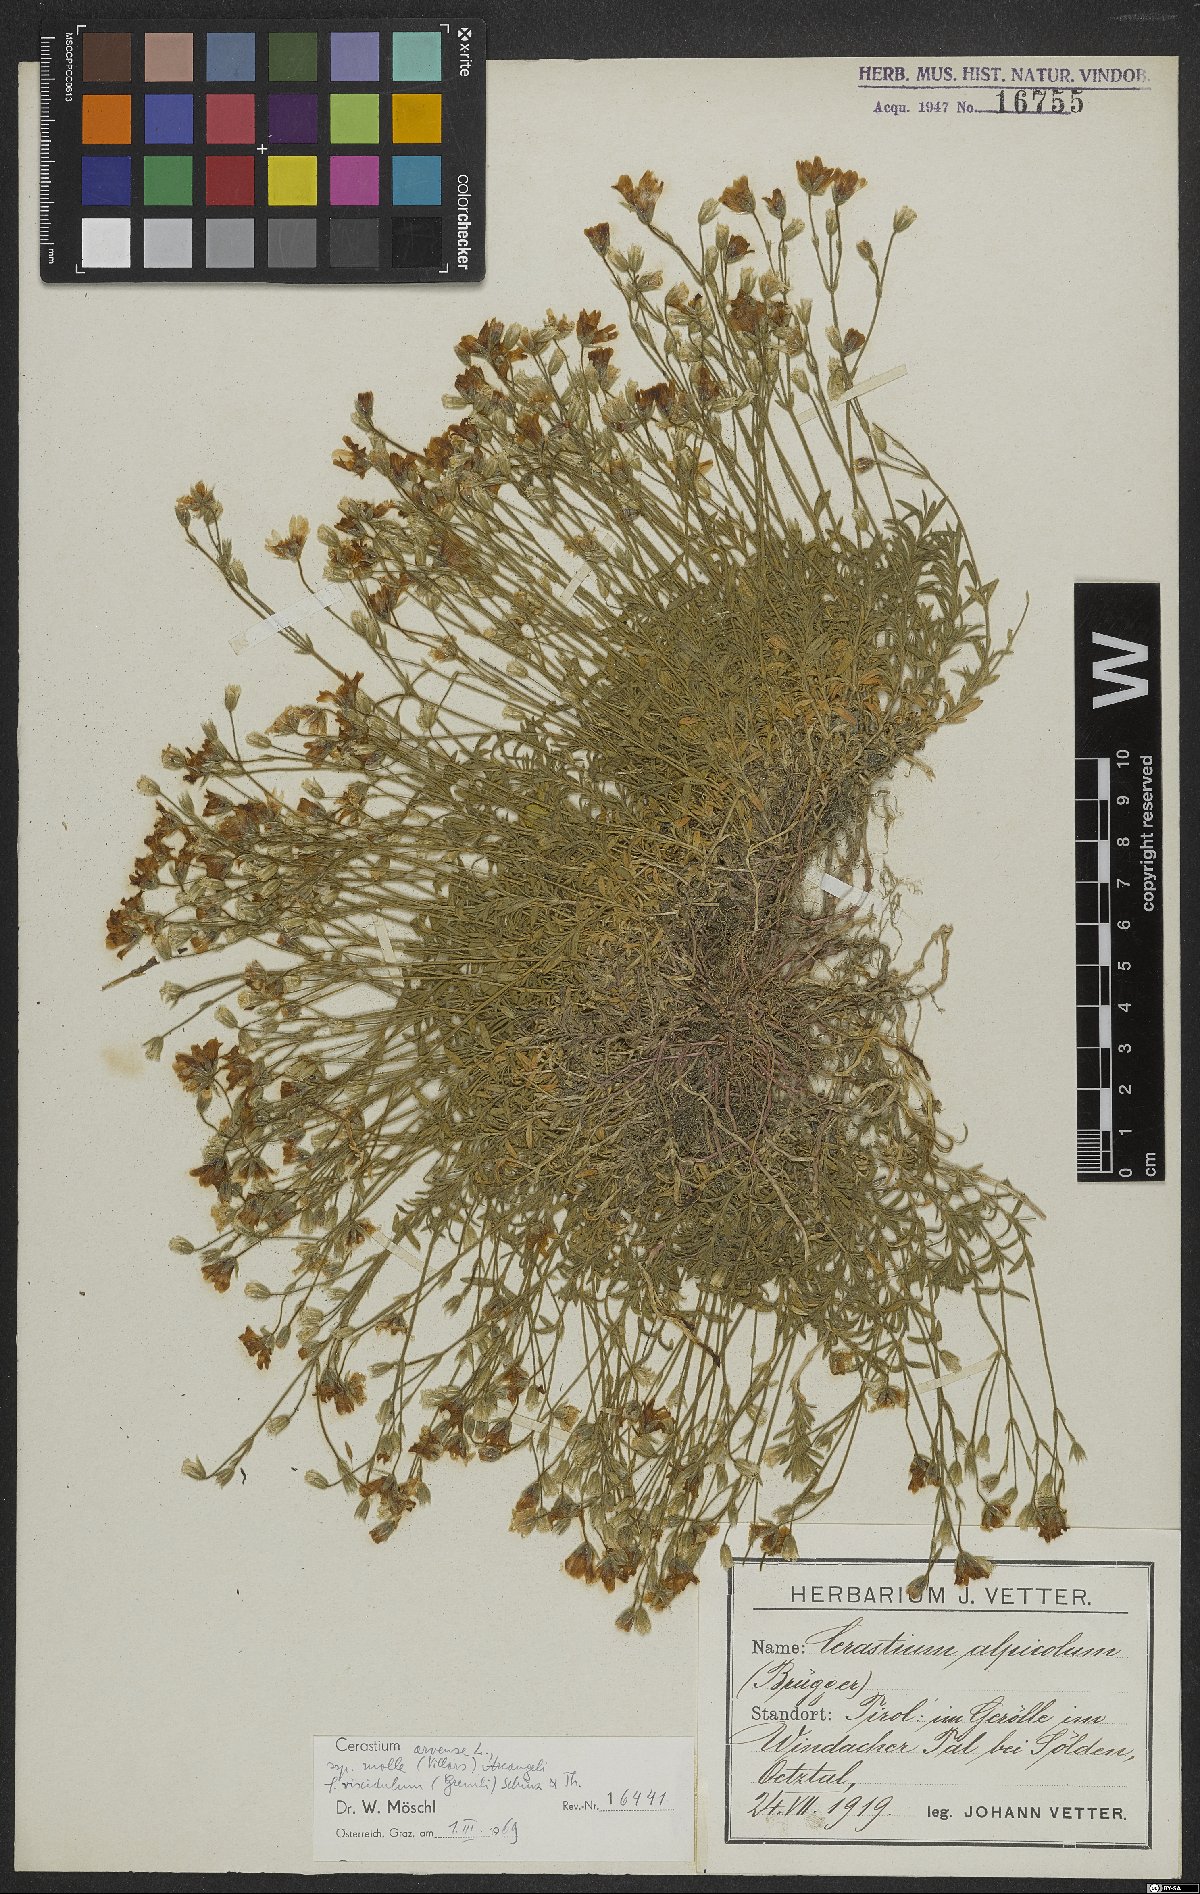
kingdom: Plantae
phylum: Tracheophyta
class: Magnoliopsida
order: Caryophyllales
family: Caryophyllaceae
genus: Cerastium
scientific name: Cerastium arvense
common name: Field mouse-ear
